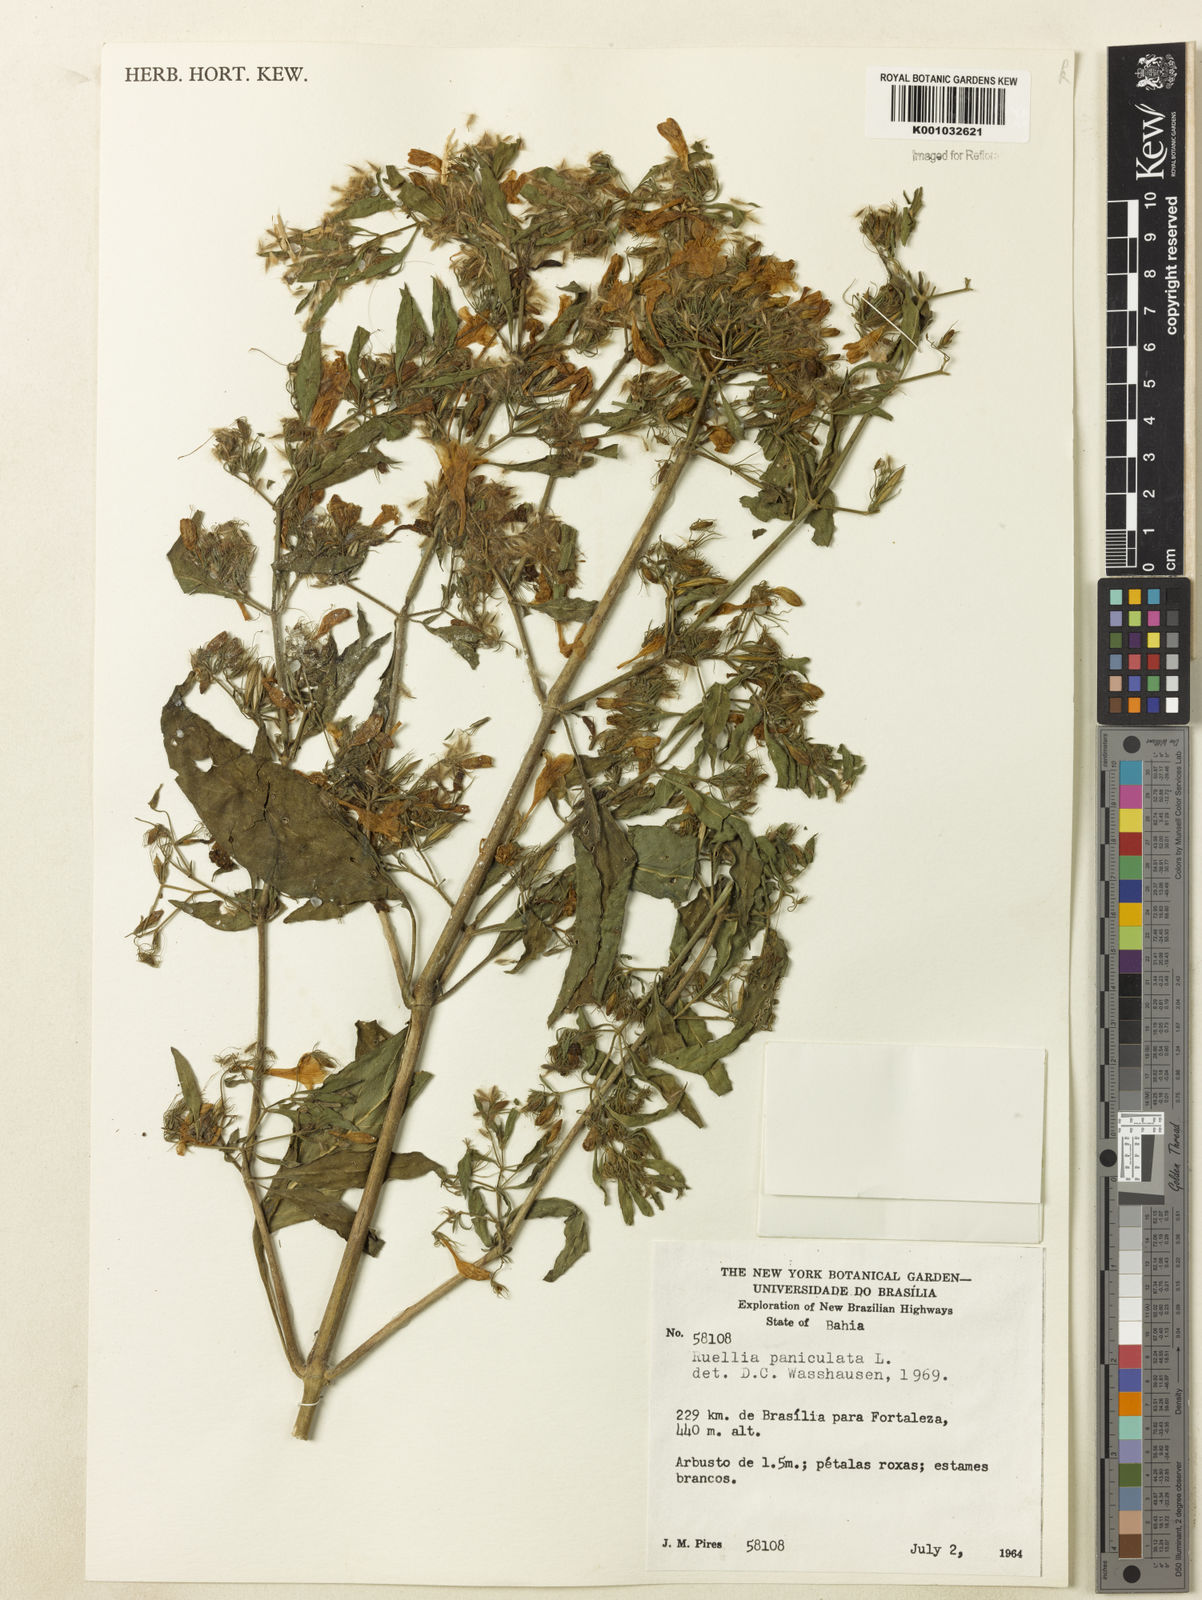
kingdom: Plantae
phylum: Tracheophyta
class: Magnoliopsida
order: Lamiales
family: Acanthaceae
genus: Ruellia
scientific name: Ruellia paniculata
